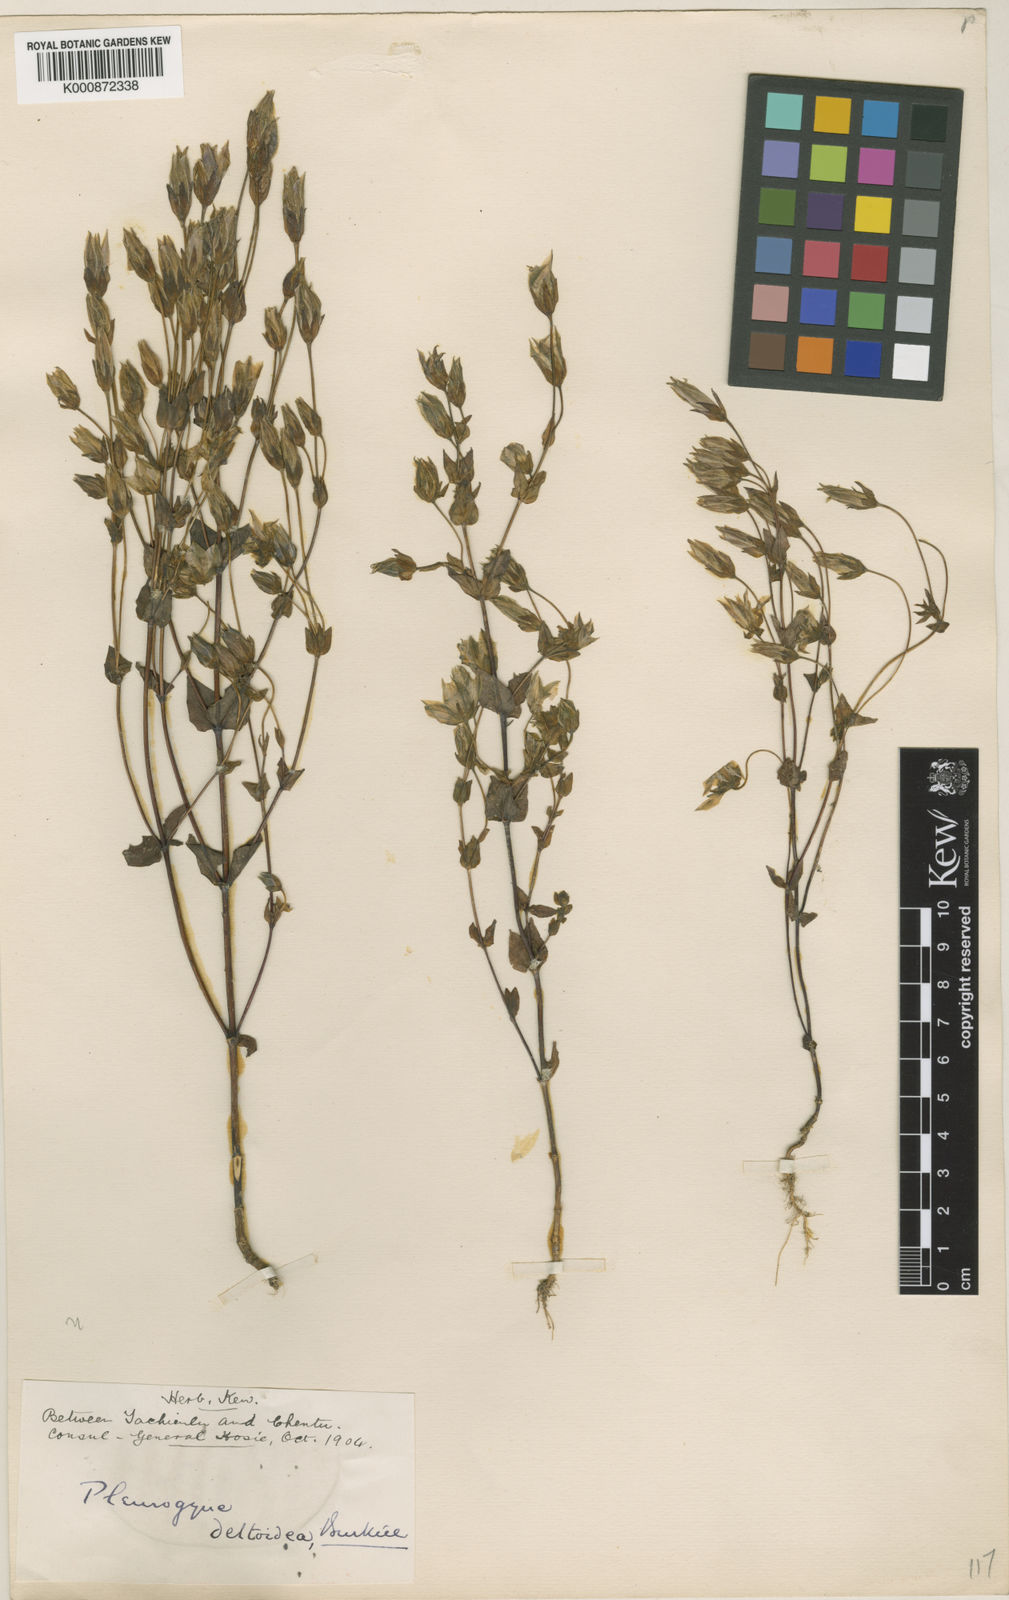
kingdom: Plantae
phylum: Tracheophyta
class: Magnoliopsida
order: Gentianales
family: Gentianaceae
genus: Lomatogonium
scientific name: Lomatogonium macranthum
